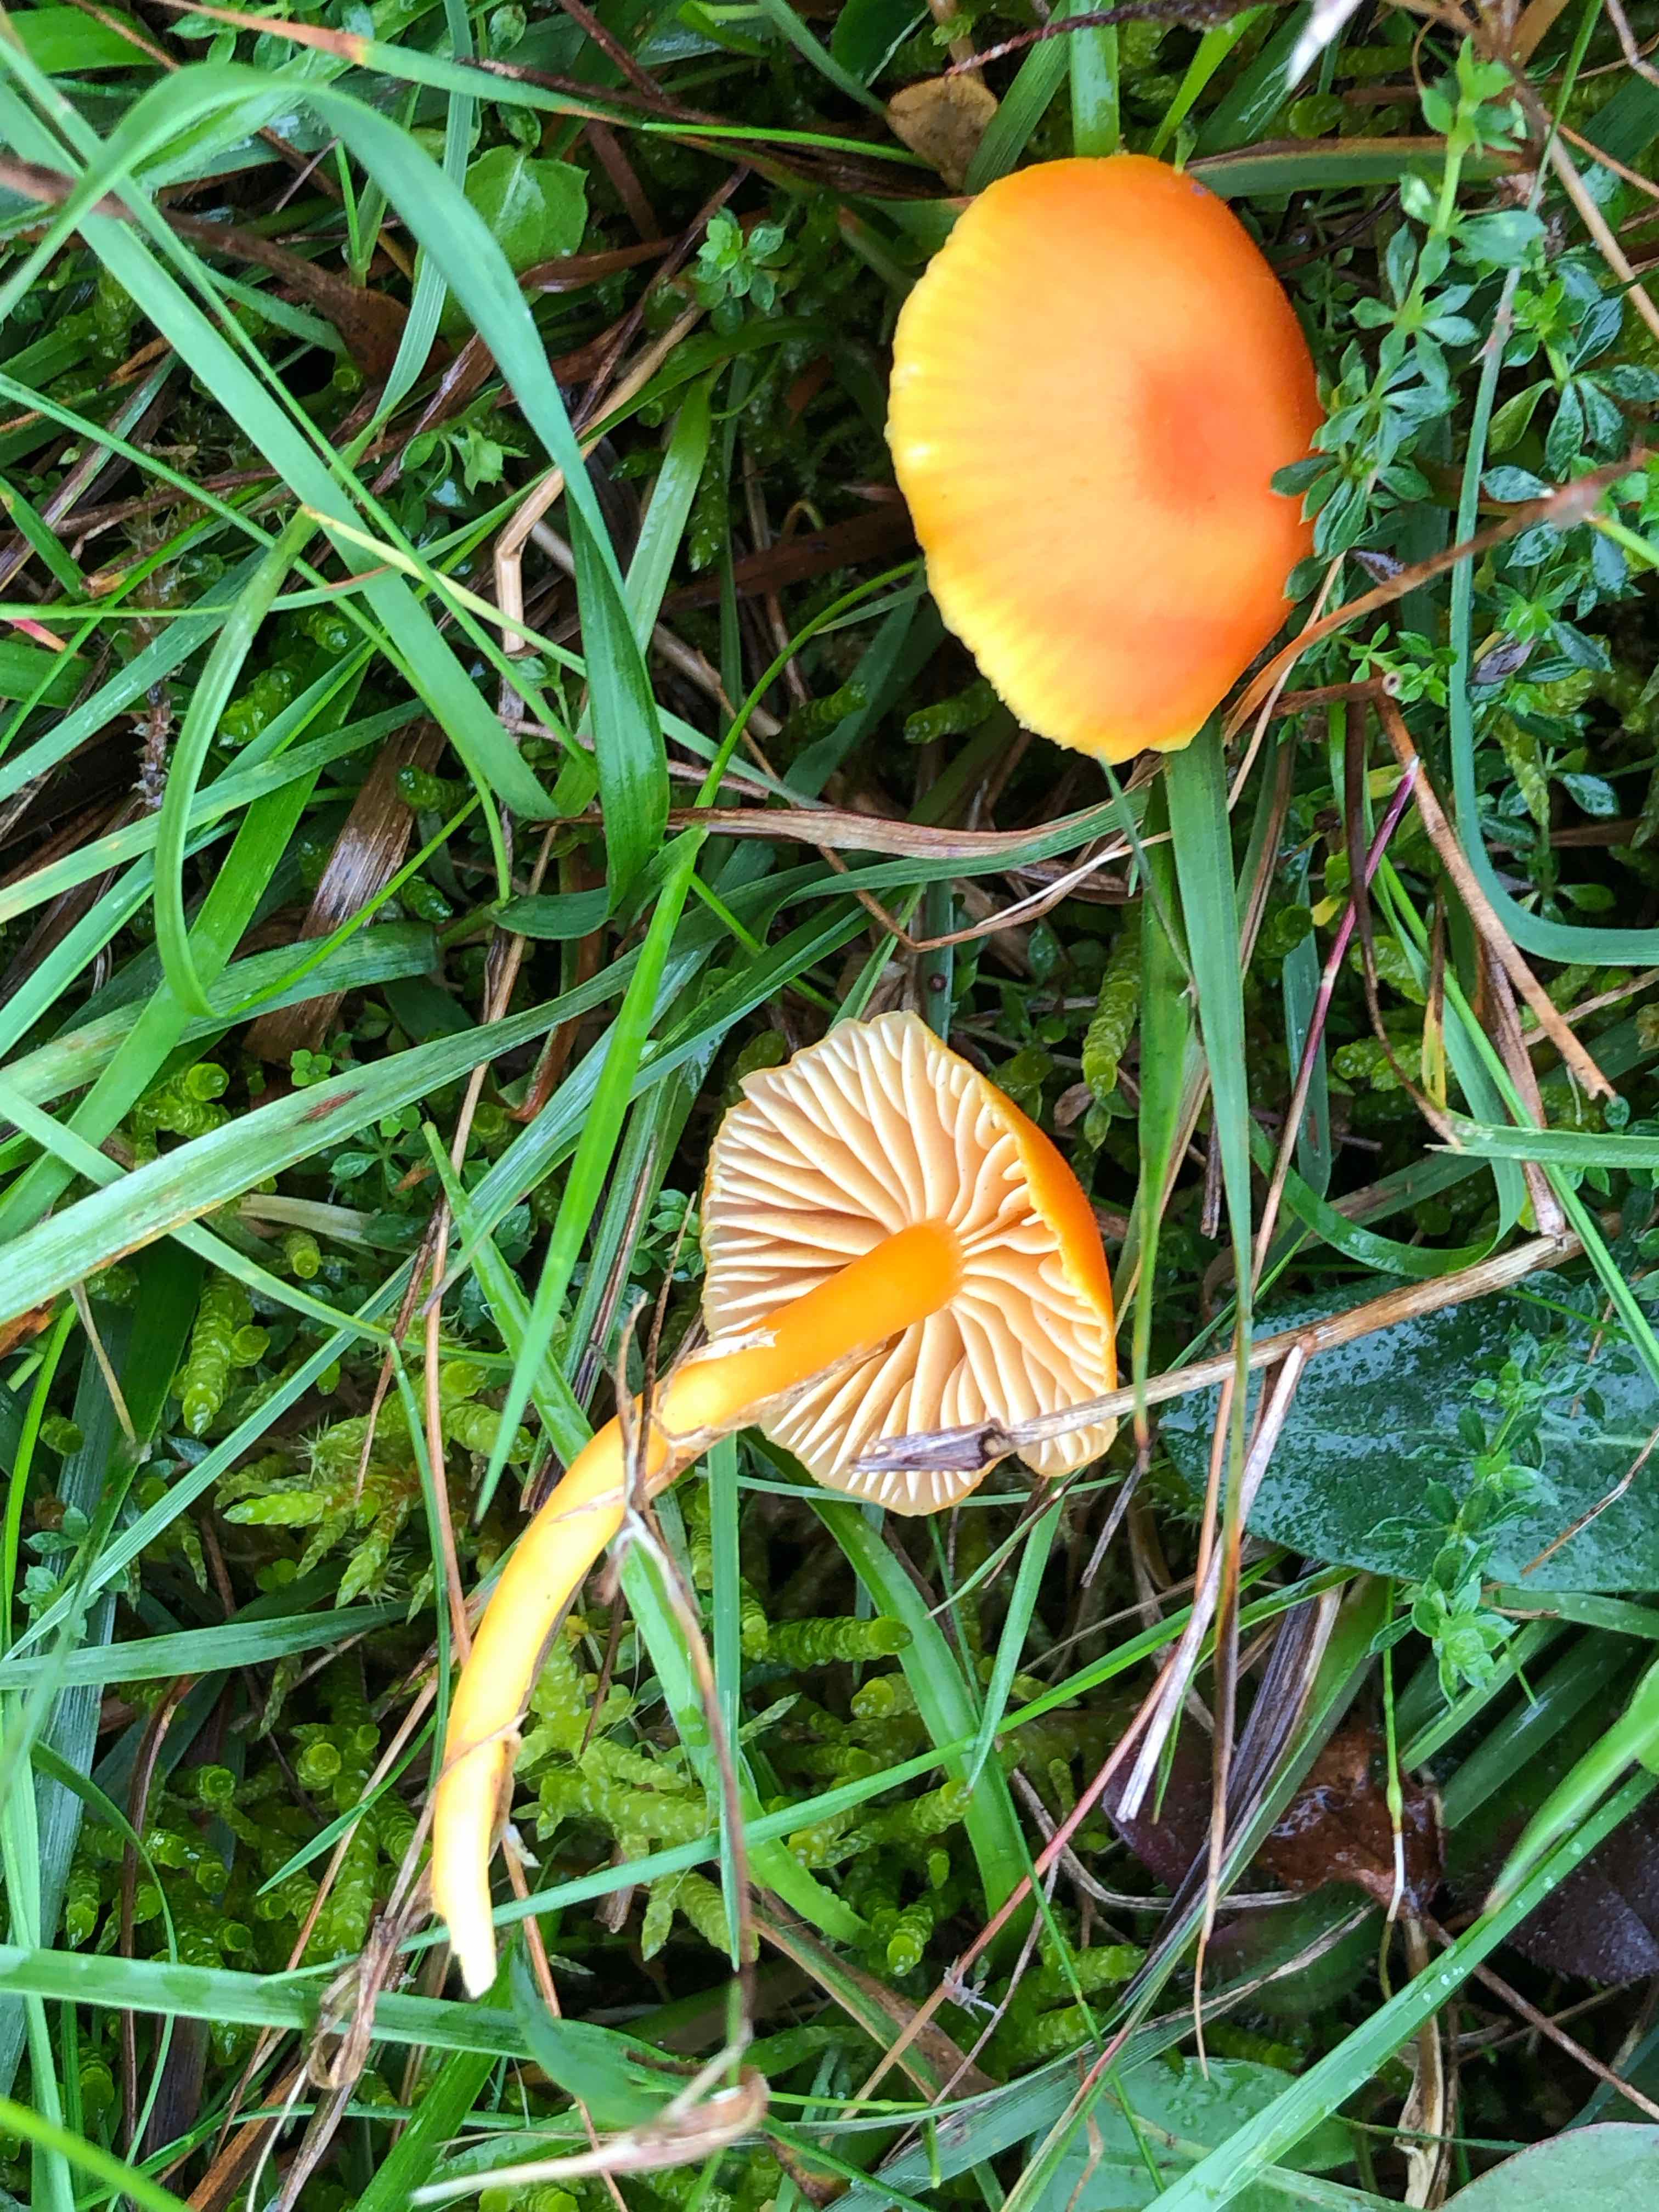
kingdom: Fungi
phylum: Basidiomycota
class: Agaricomycetes
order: Agaricales
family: Hygrophoraceae
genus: Hygrocybe
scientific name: Hygrocybe miniata
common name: mønje-vokshat
